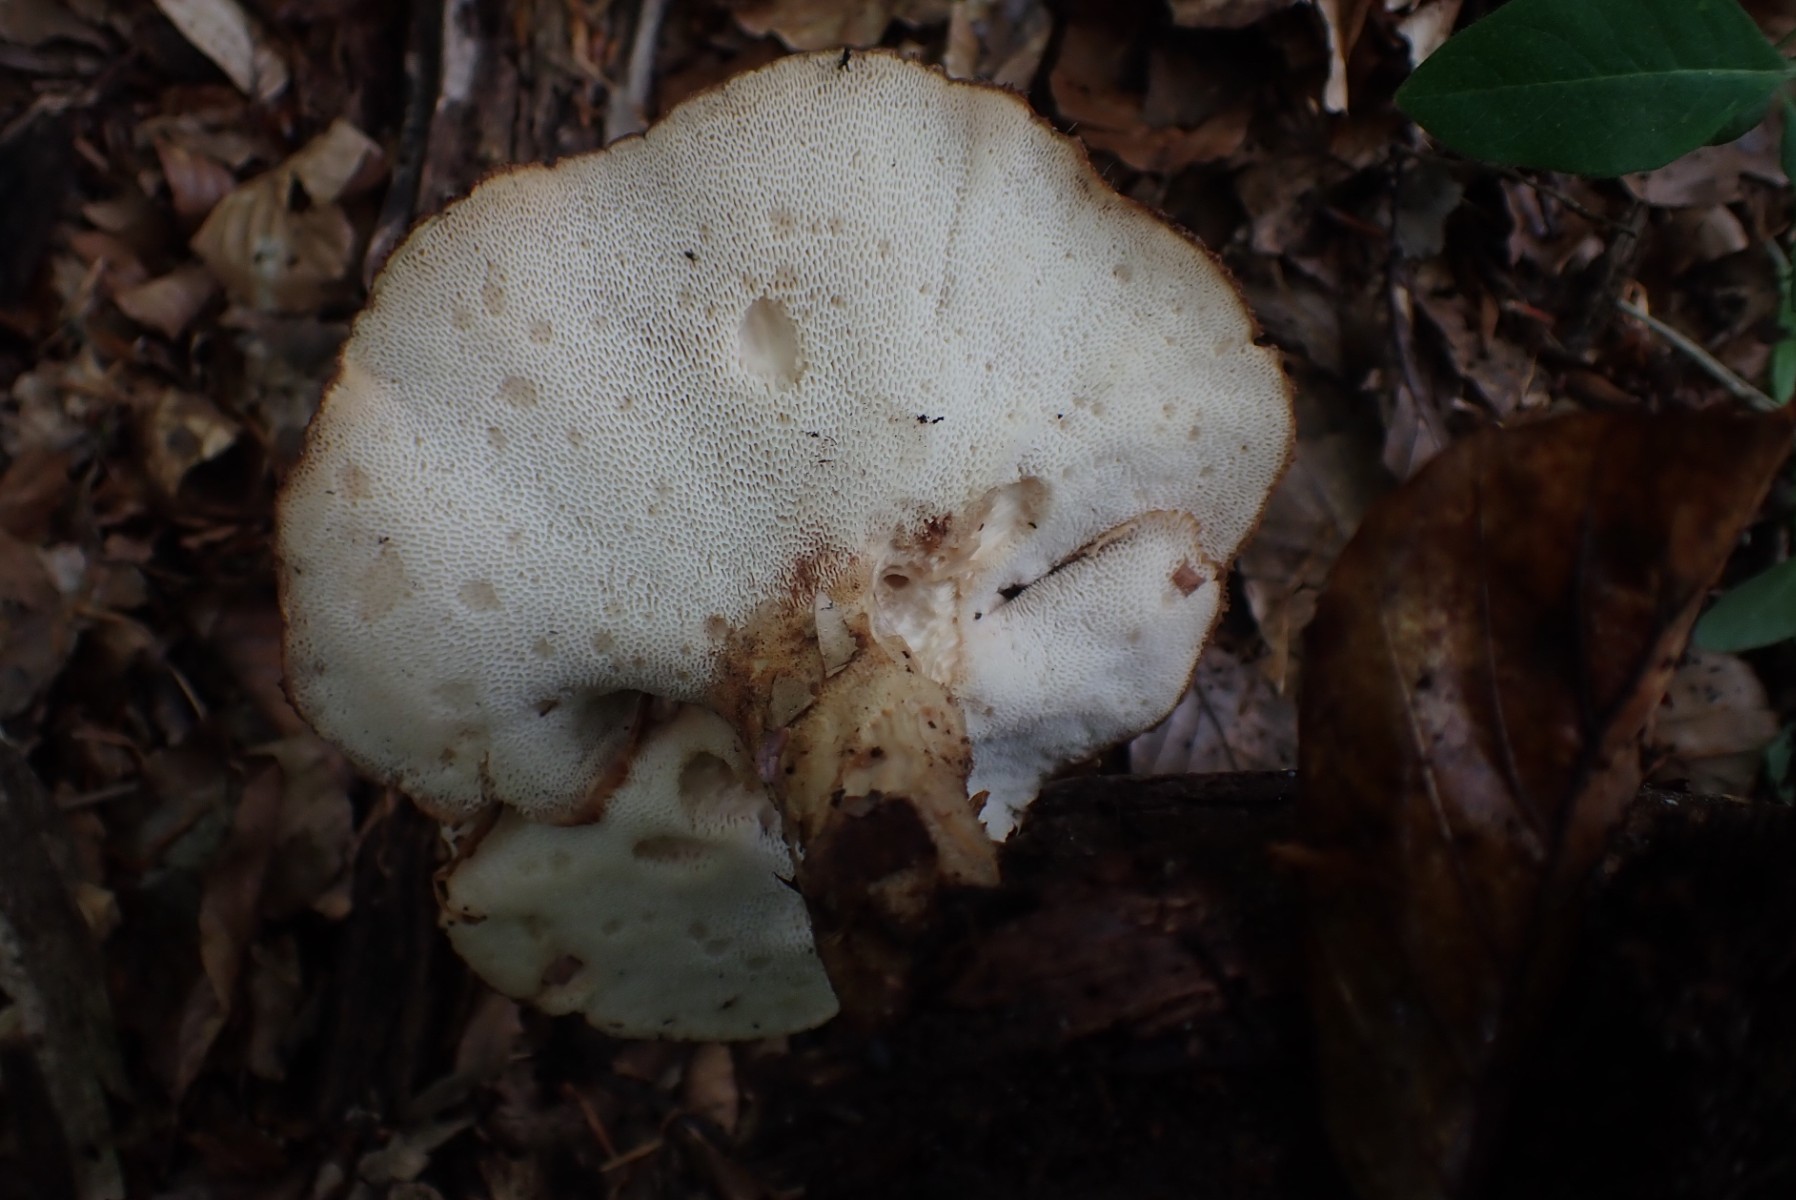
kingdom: Fungi
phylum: Basidiomycota
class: Agaricomycetes
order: Polyporales
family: Polyporaceae
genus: Polyporus
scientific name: Polyporus tuberaster
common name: knoldet stilkporesvamp
